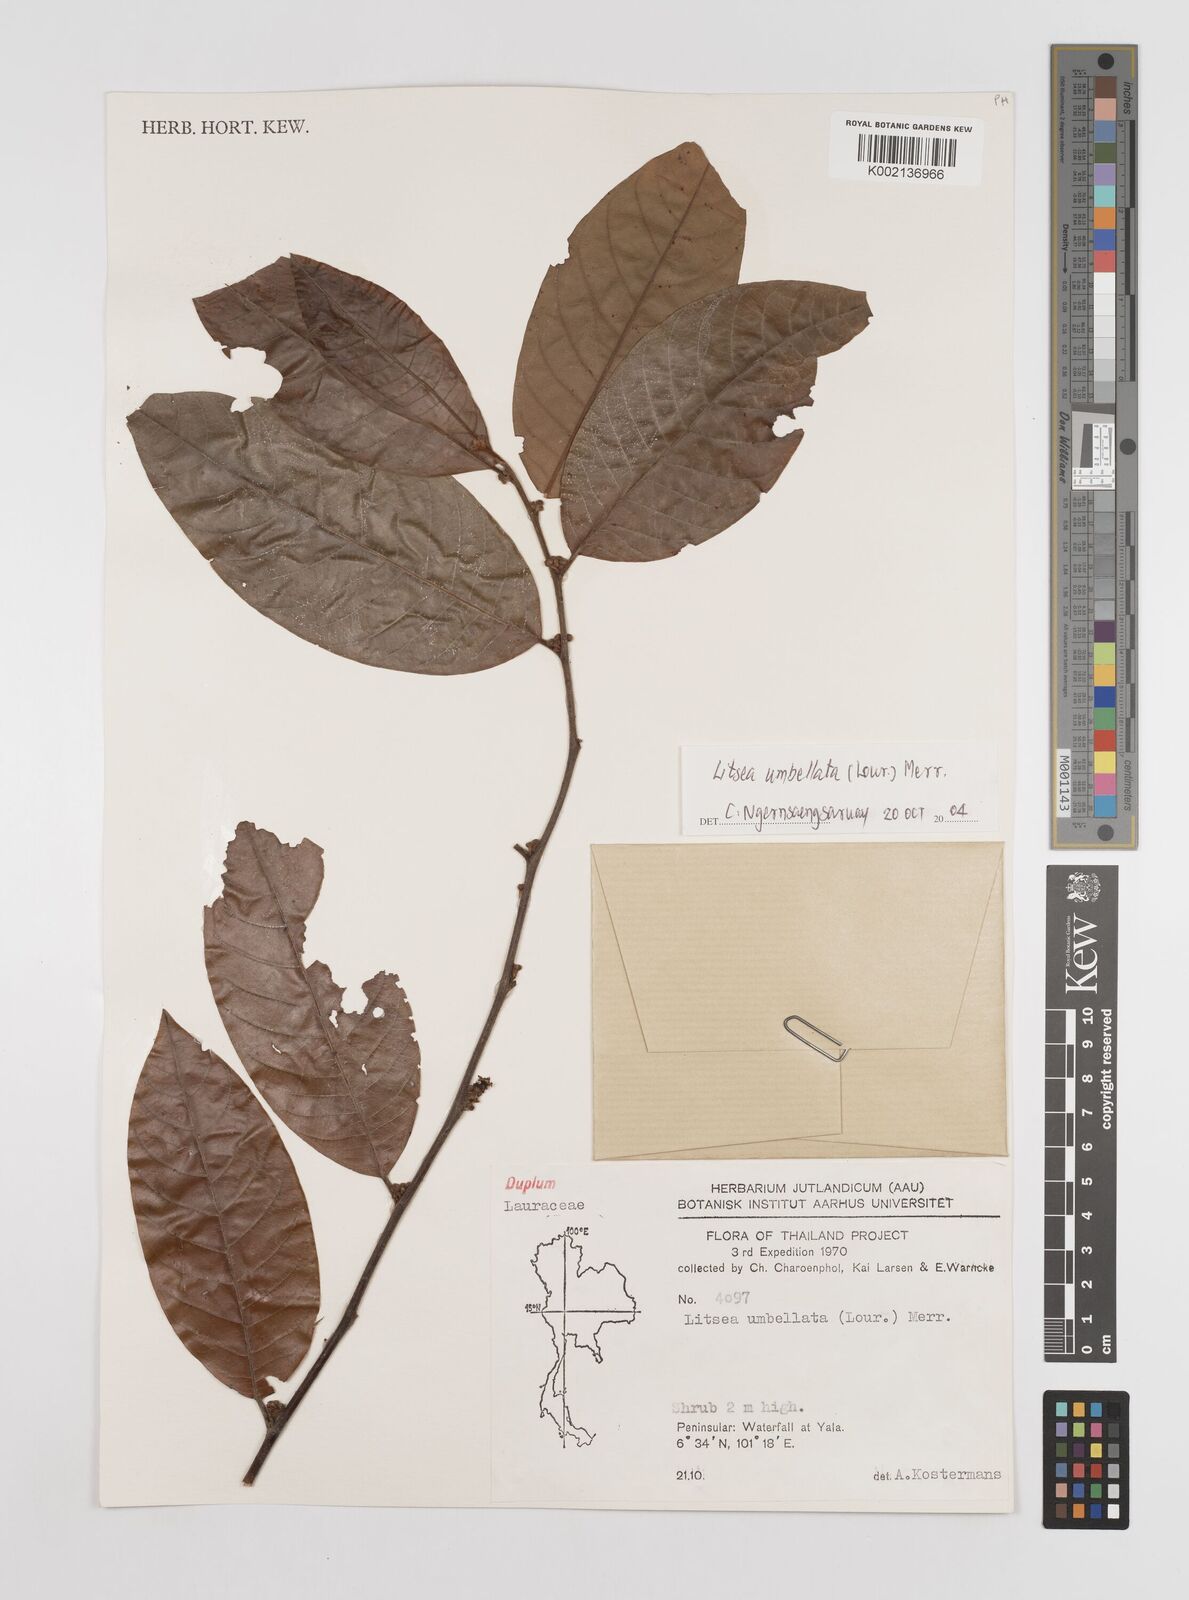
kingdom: Plantae
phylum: Tracheophyta
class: Magnoliopsida
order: Laurales
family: Lauraceae
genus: Litsea
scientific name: Litsea umbellata
